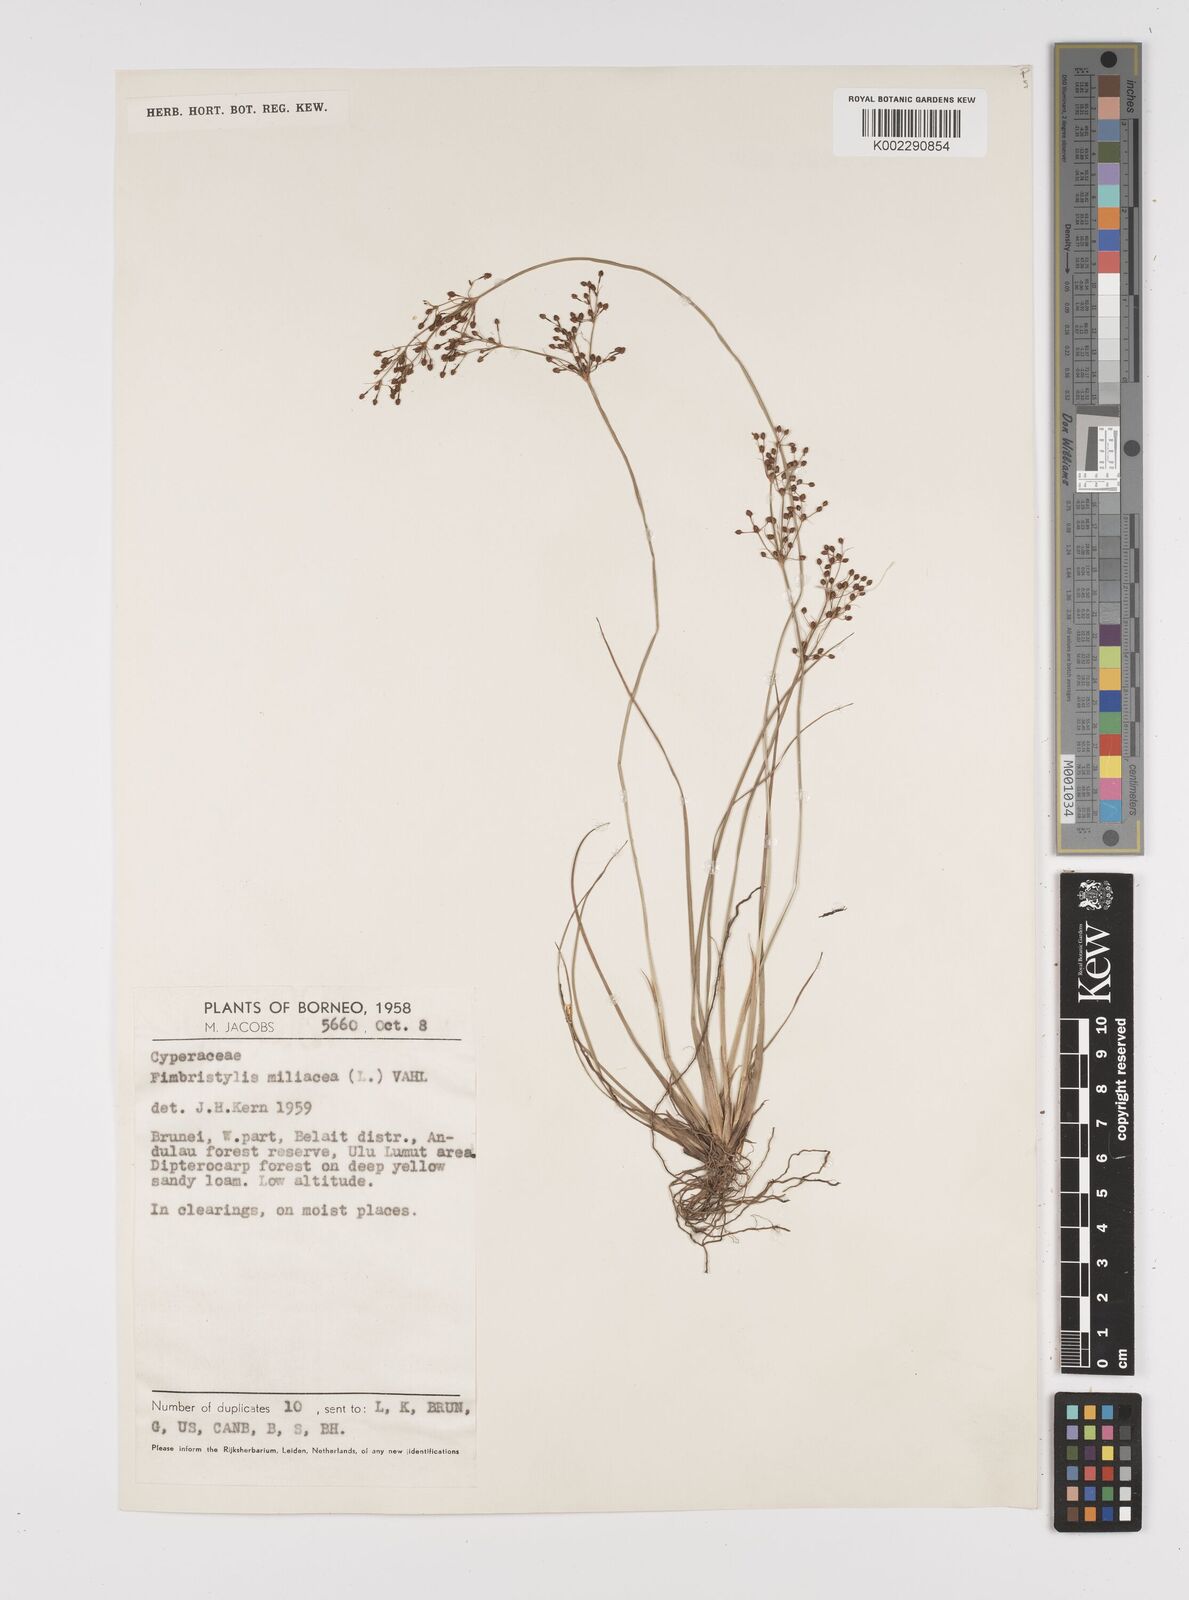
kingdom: Plantae
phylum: Tracheophyta
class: Liliopsida
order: Poales
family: Cyperaceae
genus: Fimbristylis
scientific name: Fimbristylis littoralis
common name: Fimbry
